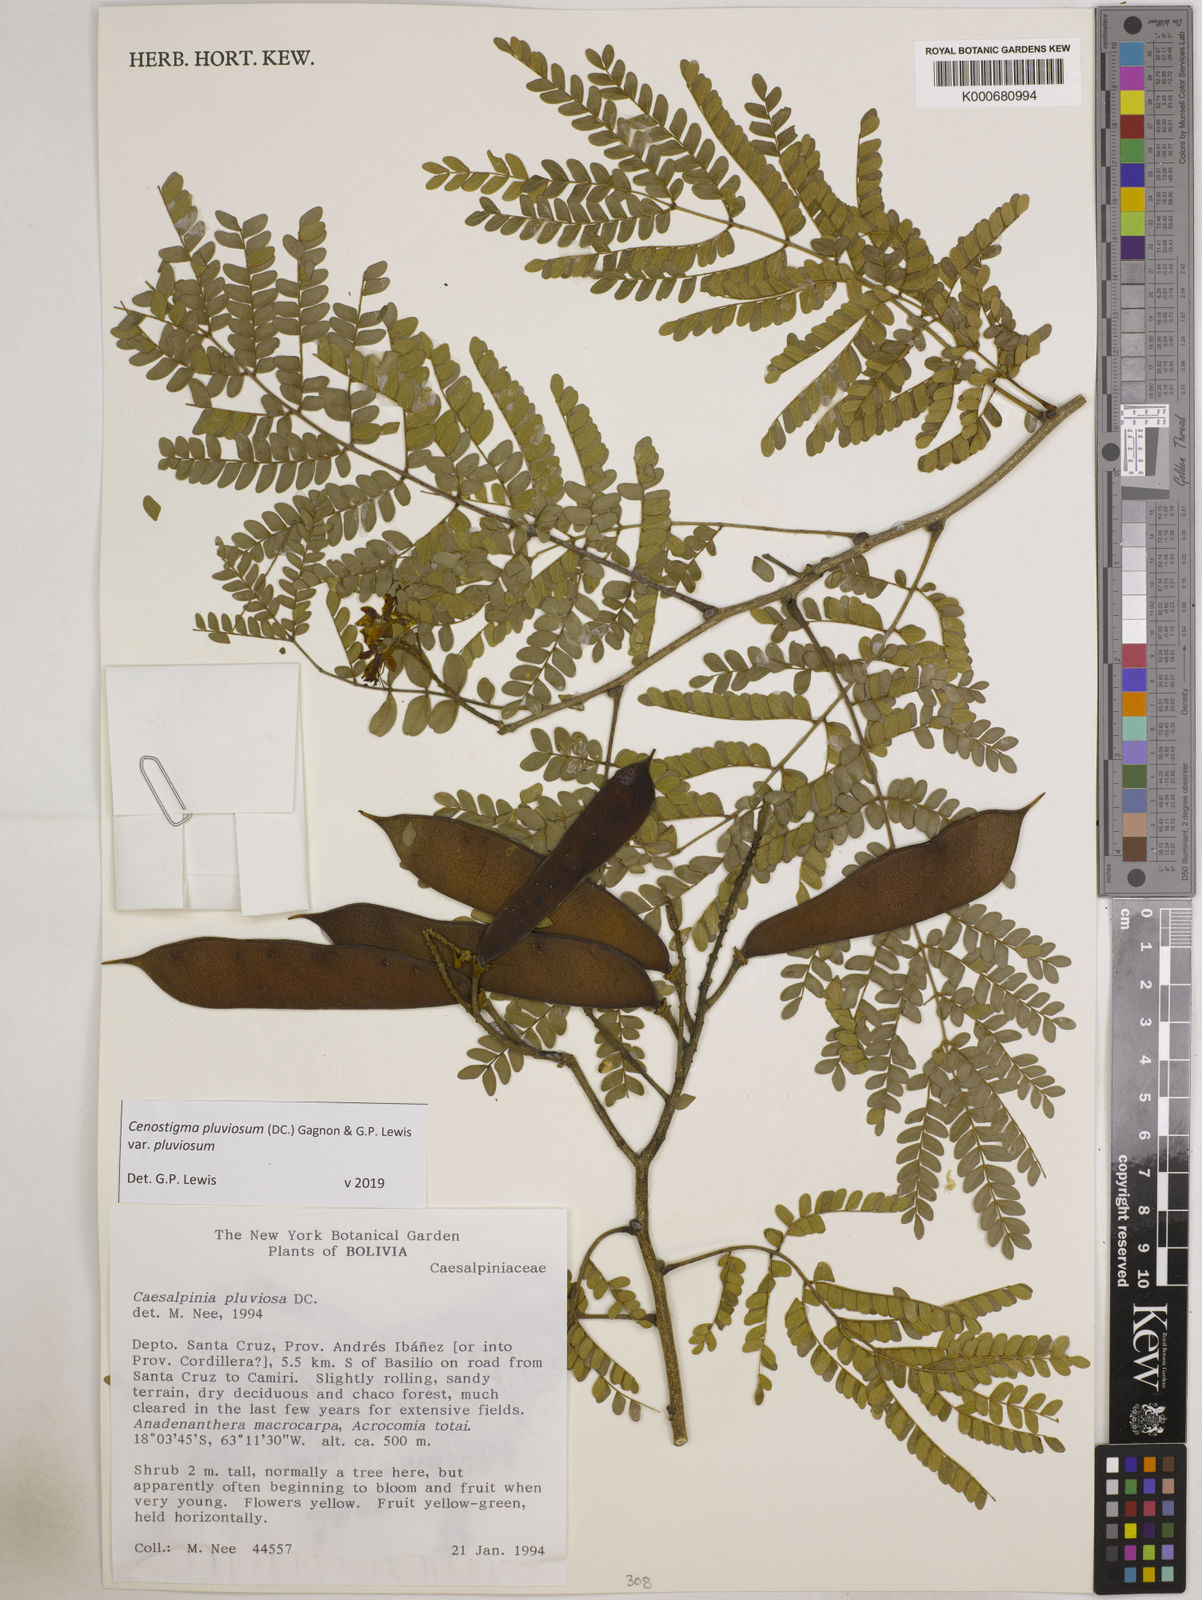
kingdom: Plantae
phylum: Tracheophyta
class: Magnoliopsida
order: Fabales
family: Fabaceae
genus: Cenostigma
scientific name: Cenostigma pluviosum
